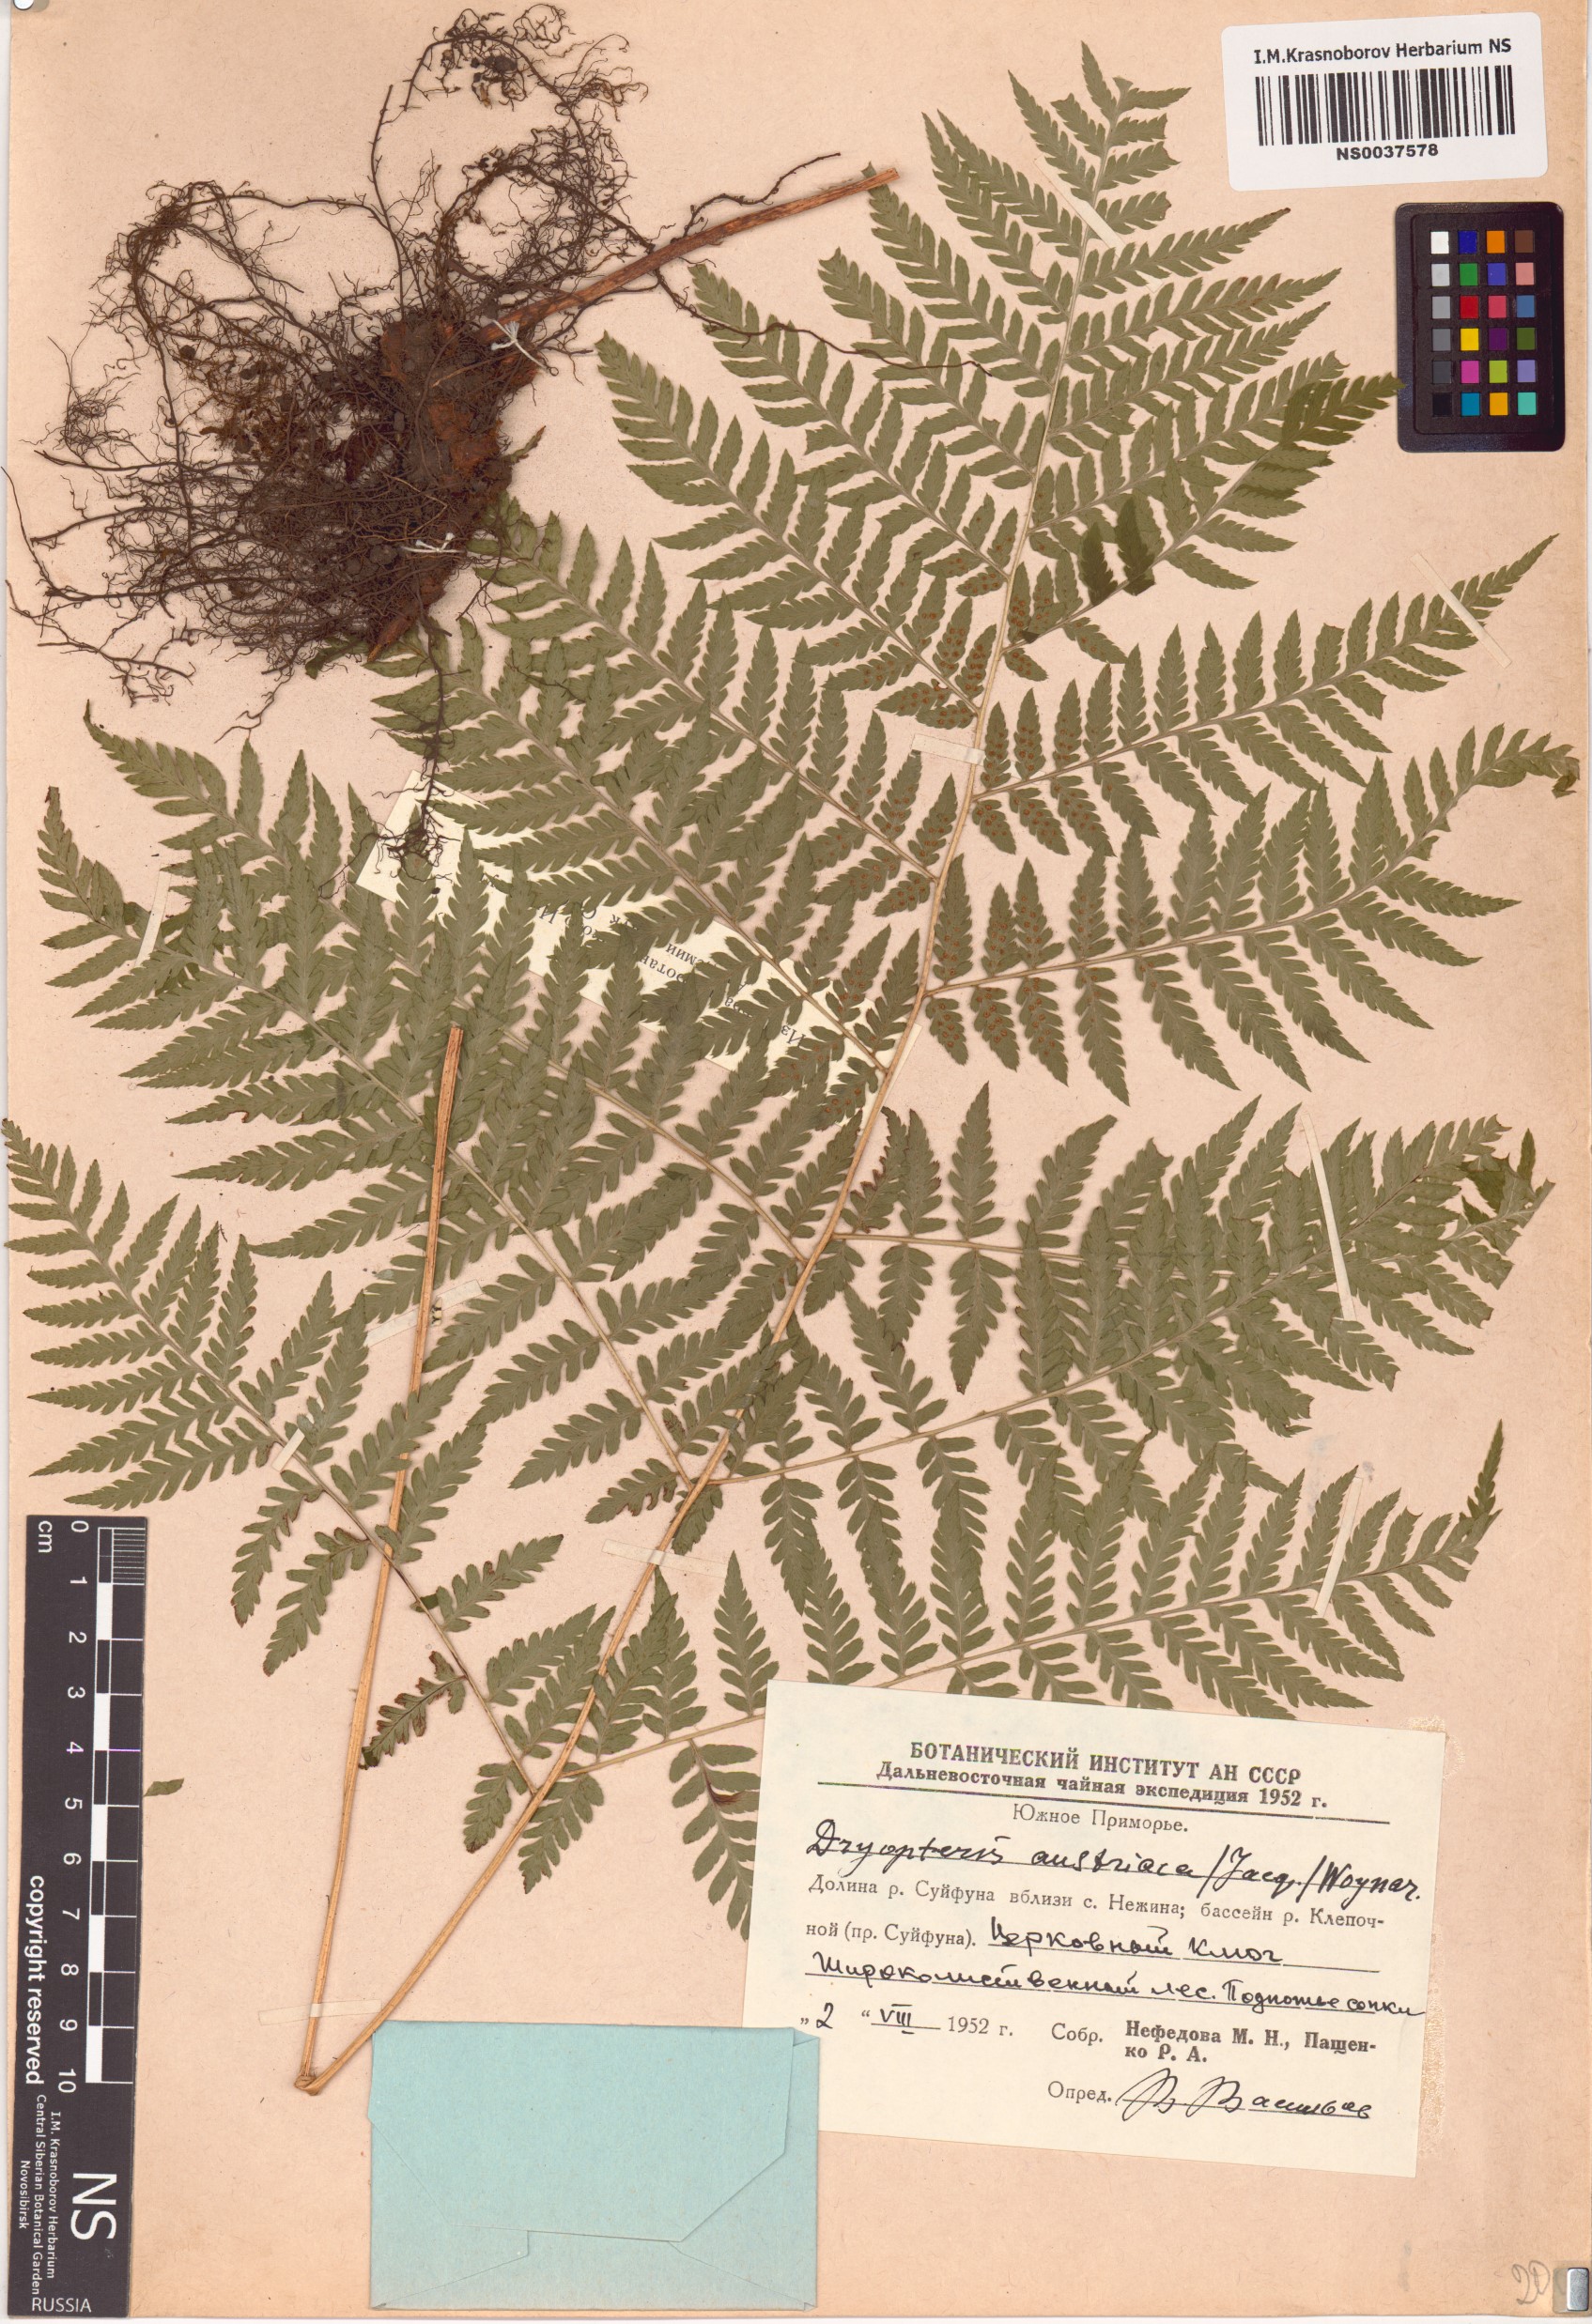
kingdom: Plantae
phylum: Tracheophyta
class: Polypodiopsida
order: Polypodiales
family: Dryopteridaceae
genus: Dryopteris
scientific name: Dryopteris dilatata
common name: Broad buckler-fern
